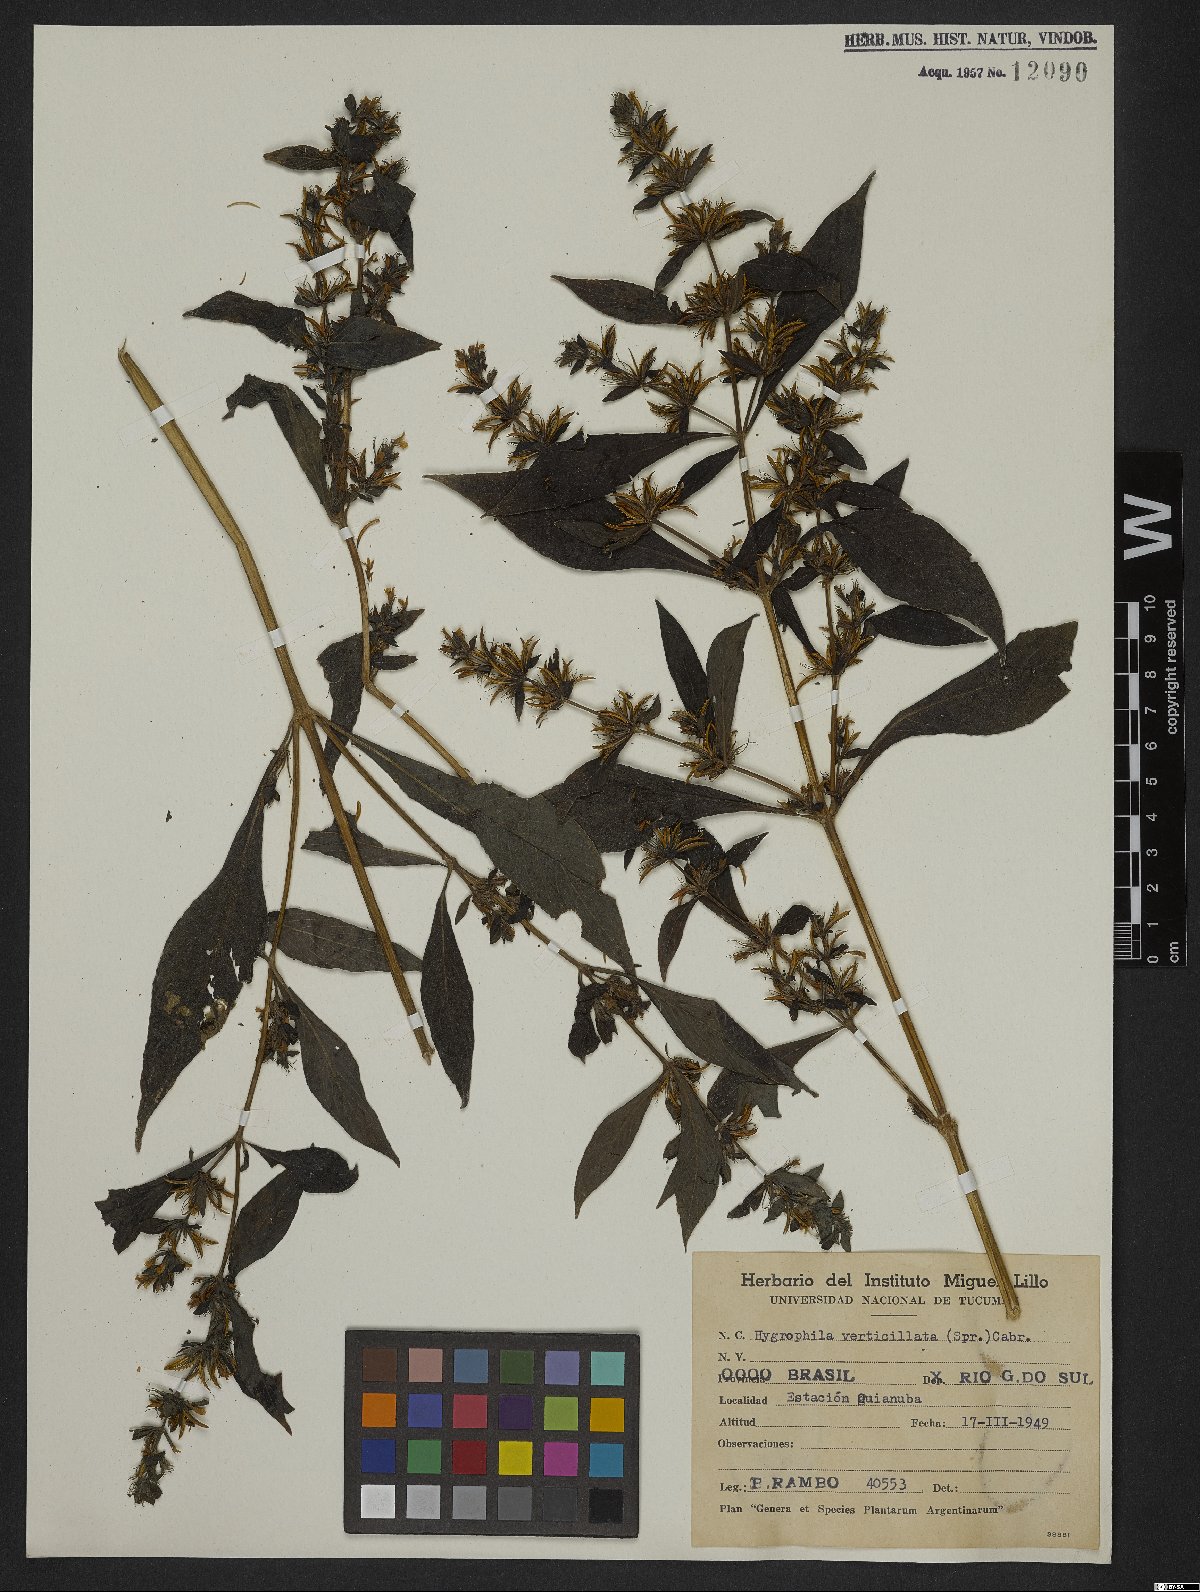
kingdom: Plantae
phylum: Tracheophyta
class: Magnoliopsida
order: Lamiales
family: Acanthaceae
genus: Hygrophila
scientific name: Hygrophila balsamica
